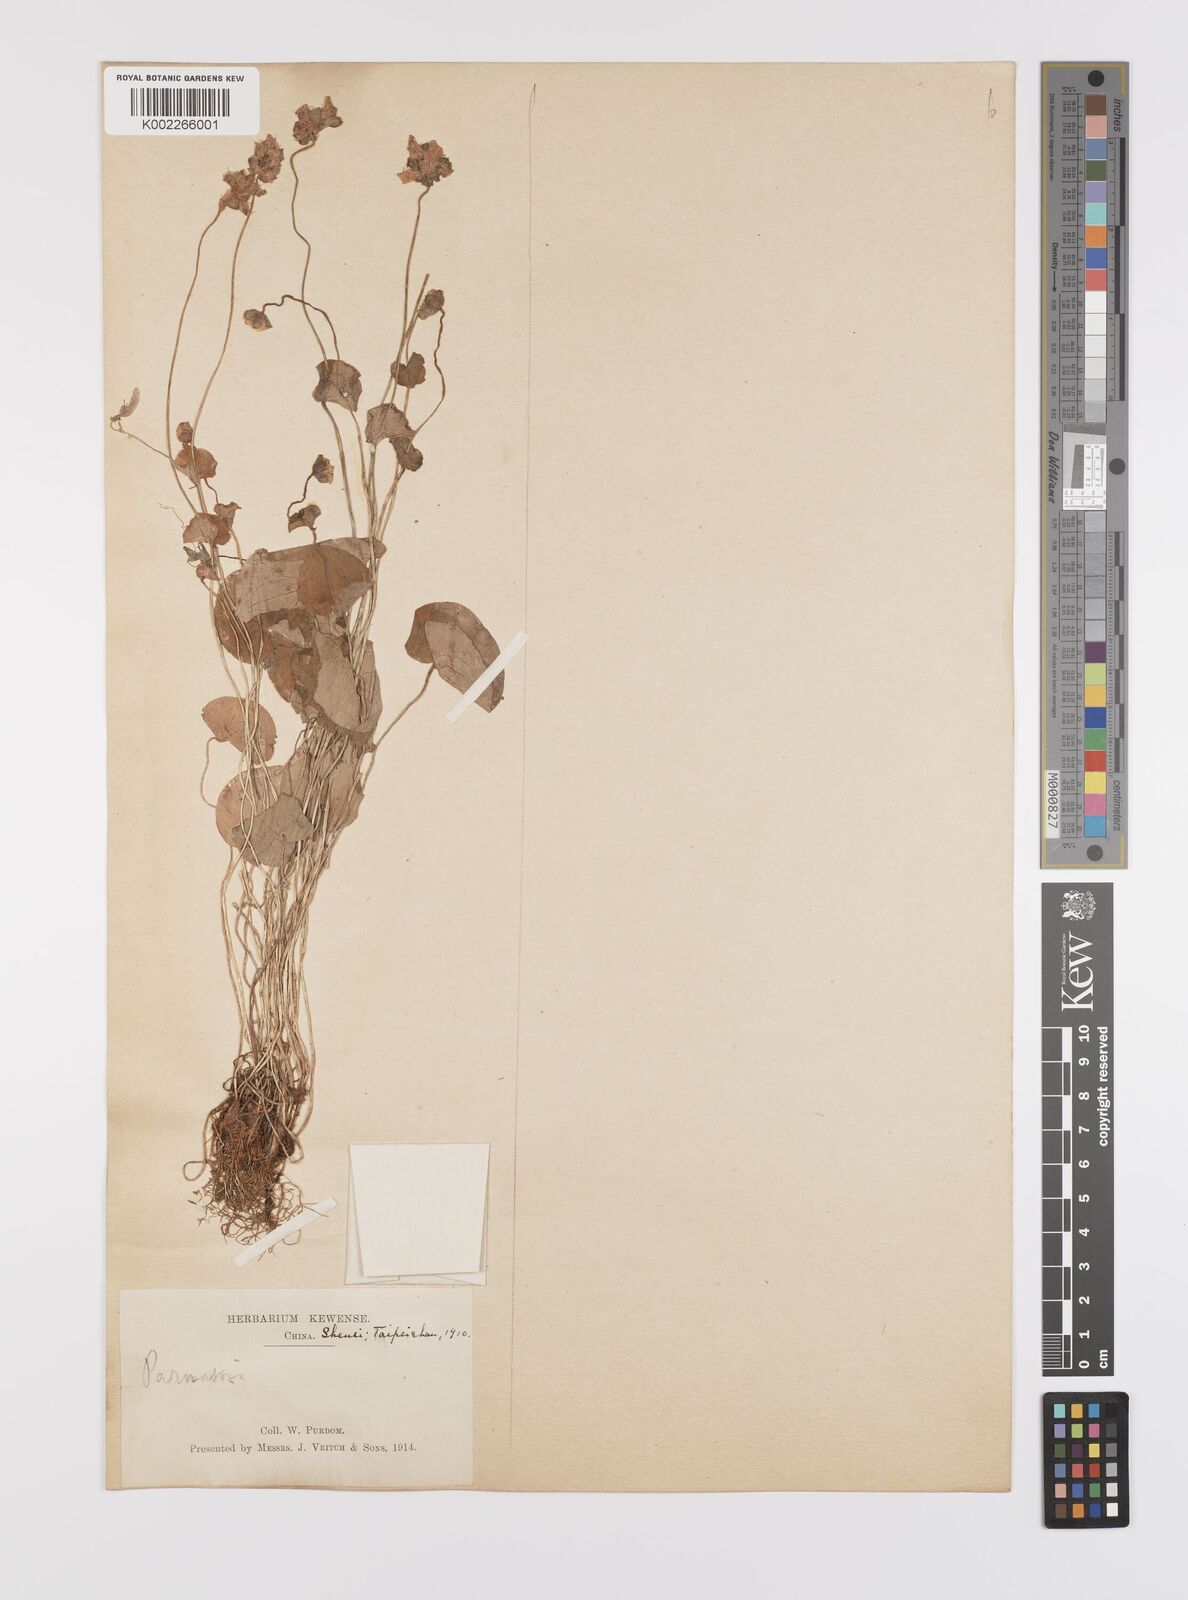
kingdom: Plantae
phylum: Tracheophyta
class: Magnoliopsida
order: Celastrales
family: Parnassiaceae
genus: Parnassia
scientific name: Parnassia wightiana
